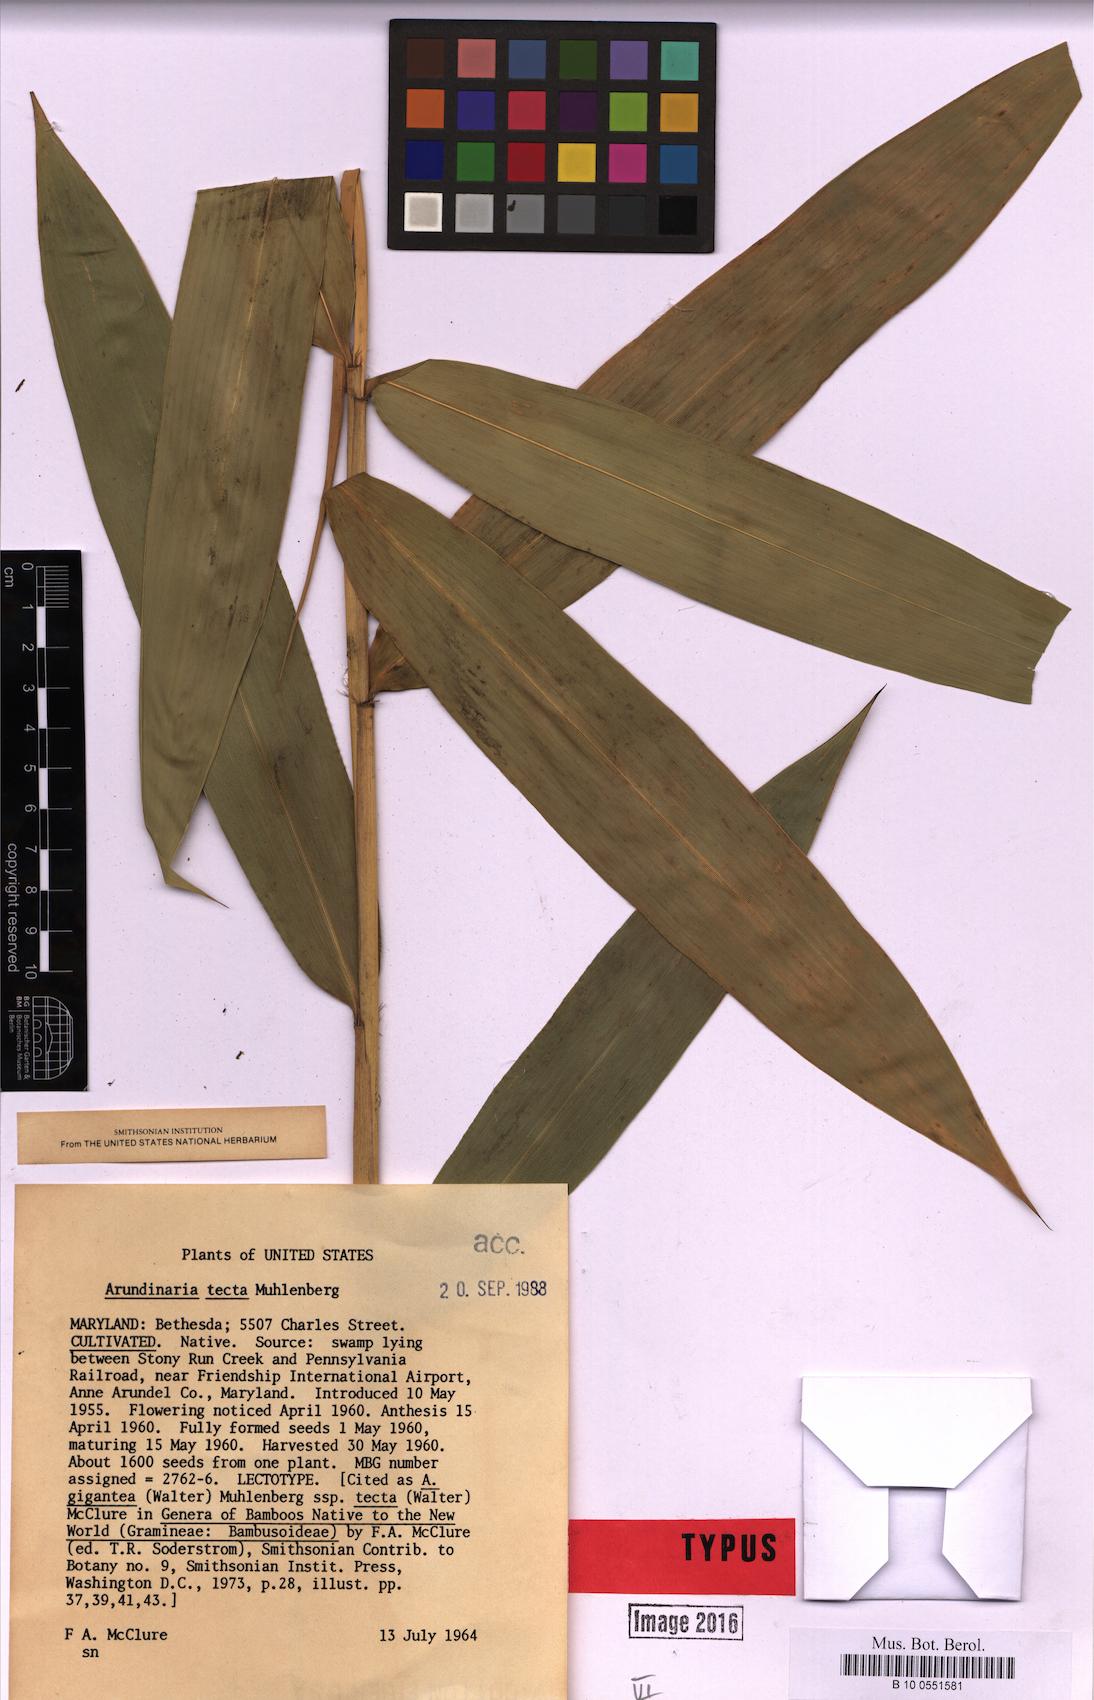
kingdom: Plantae
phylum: Tracheophyta
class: Liliopsida
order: Poales
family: Poaceae
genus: Arundinaria
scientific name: Arundinaria tecta
